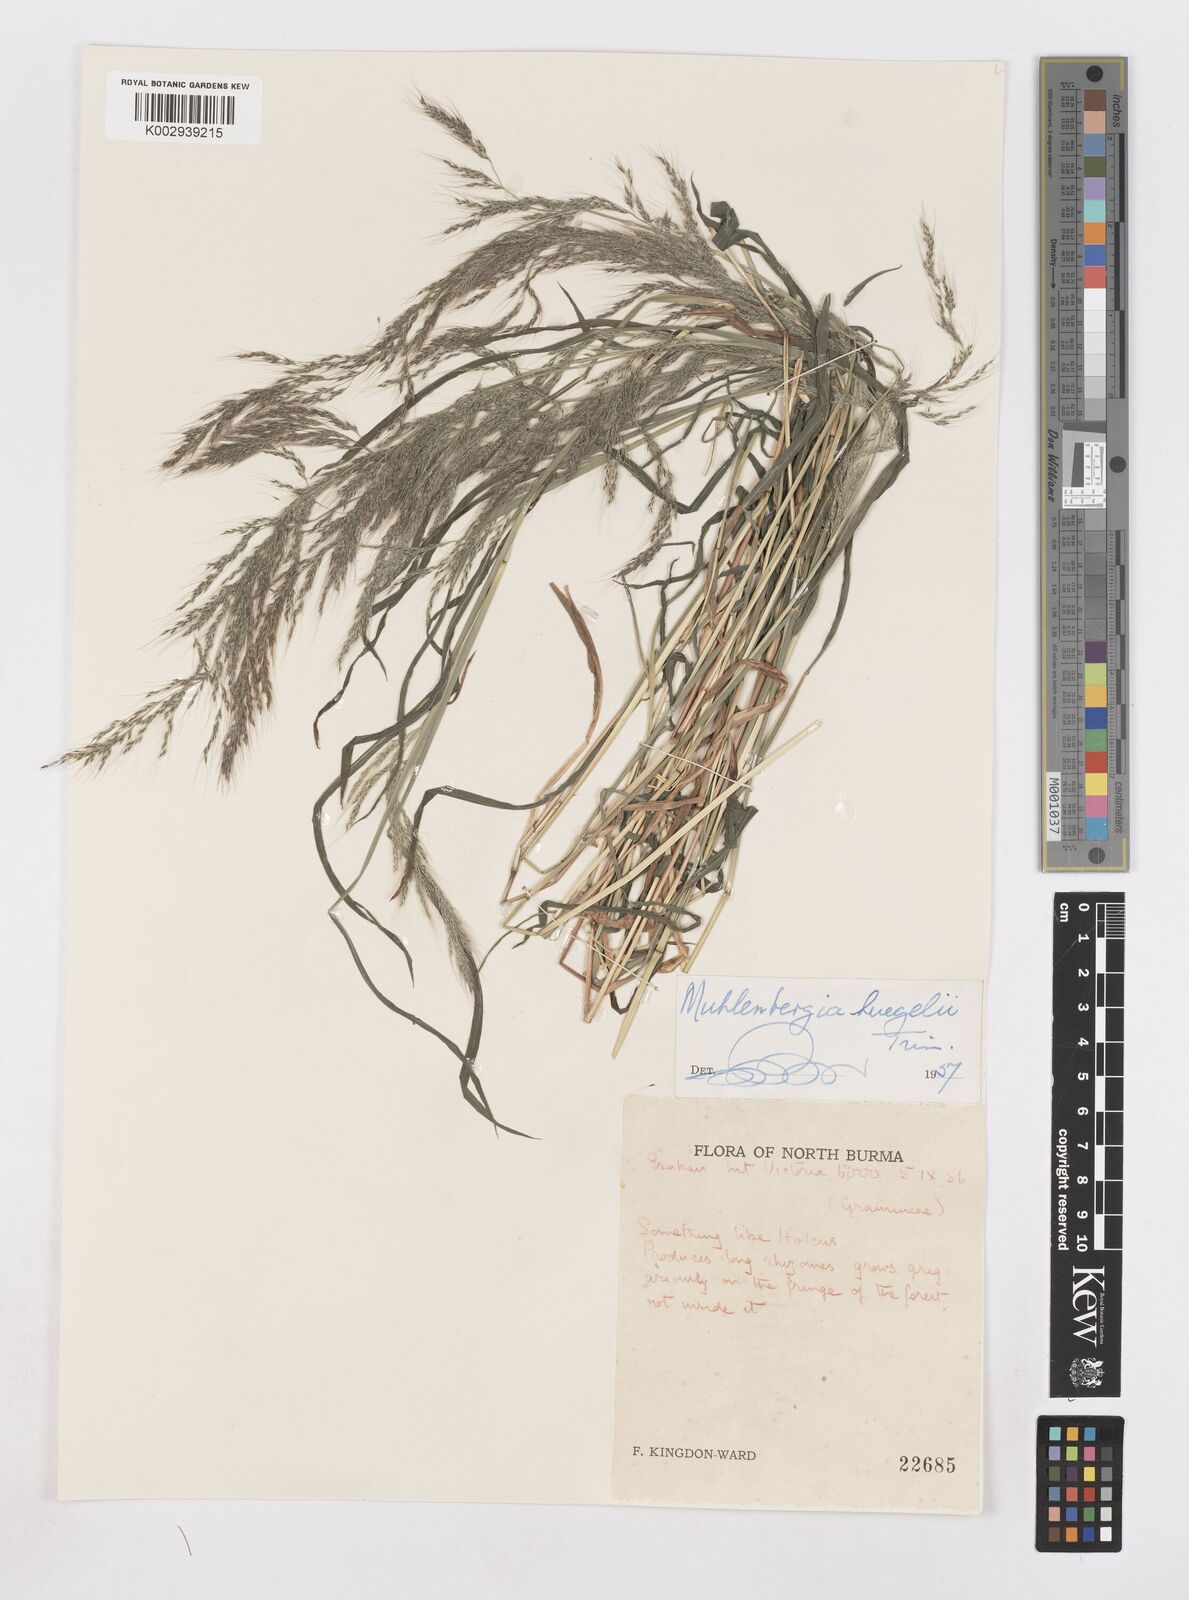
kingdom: Plantae
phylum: Tracheophyta
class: Liliopsida
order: Poales
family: Poaceae
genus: Muhlenbergia
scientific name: Muhlenbergia huegelii
